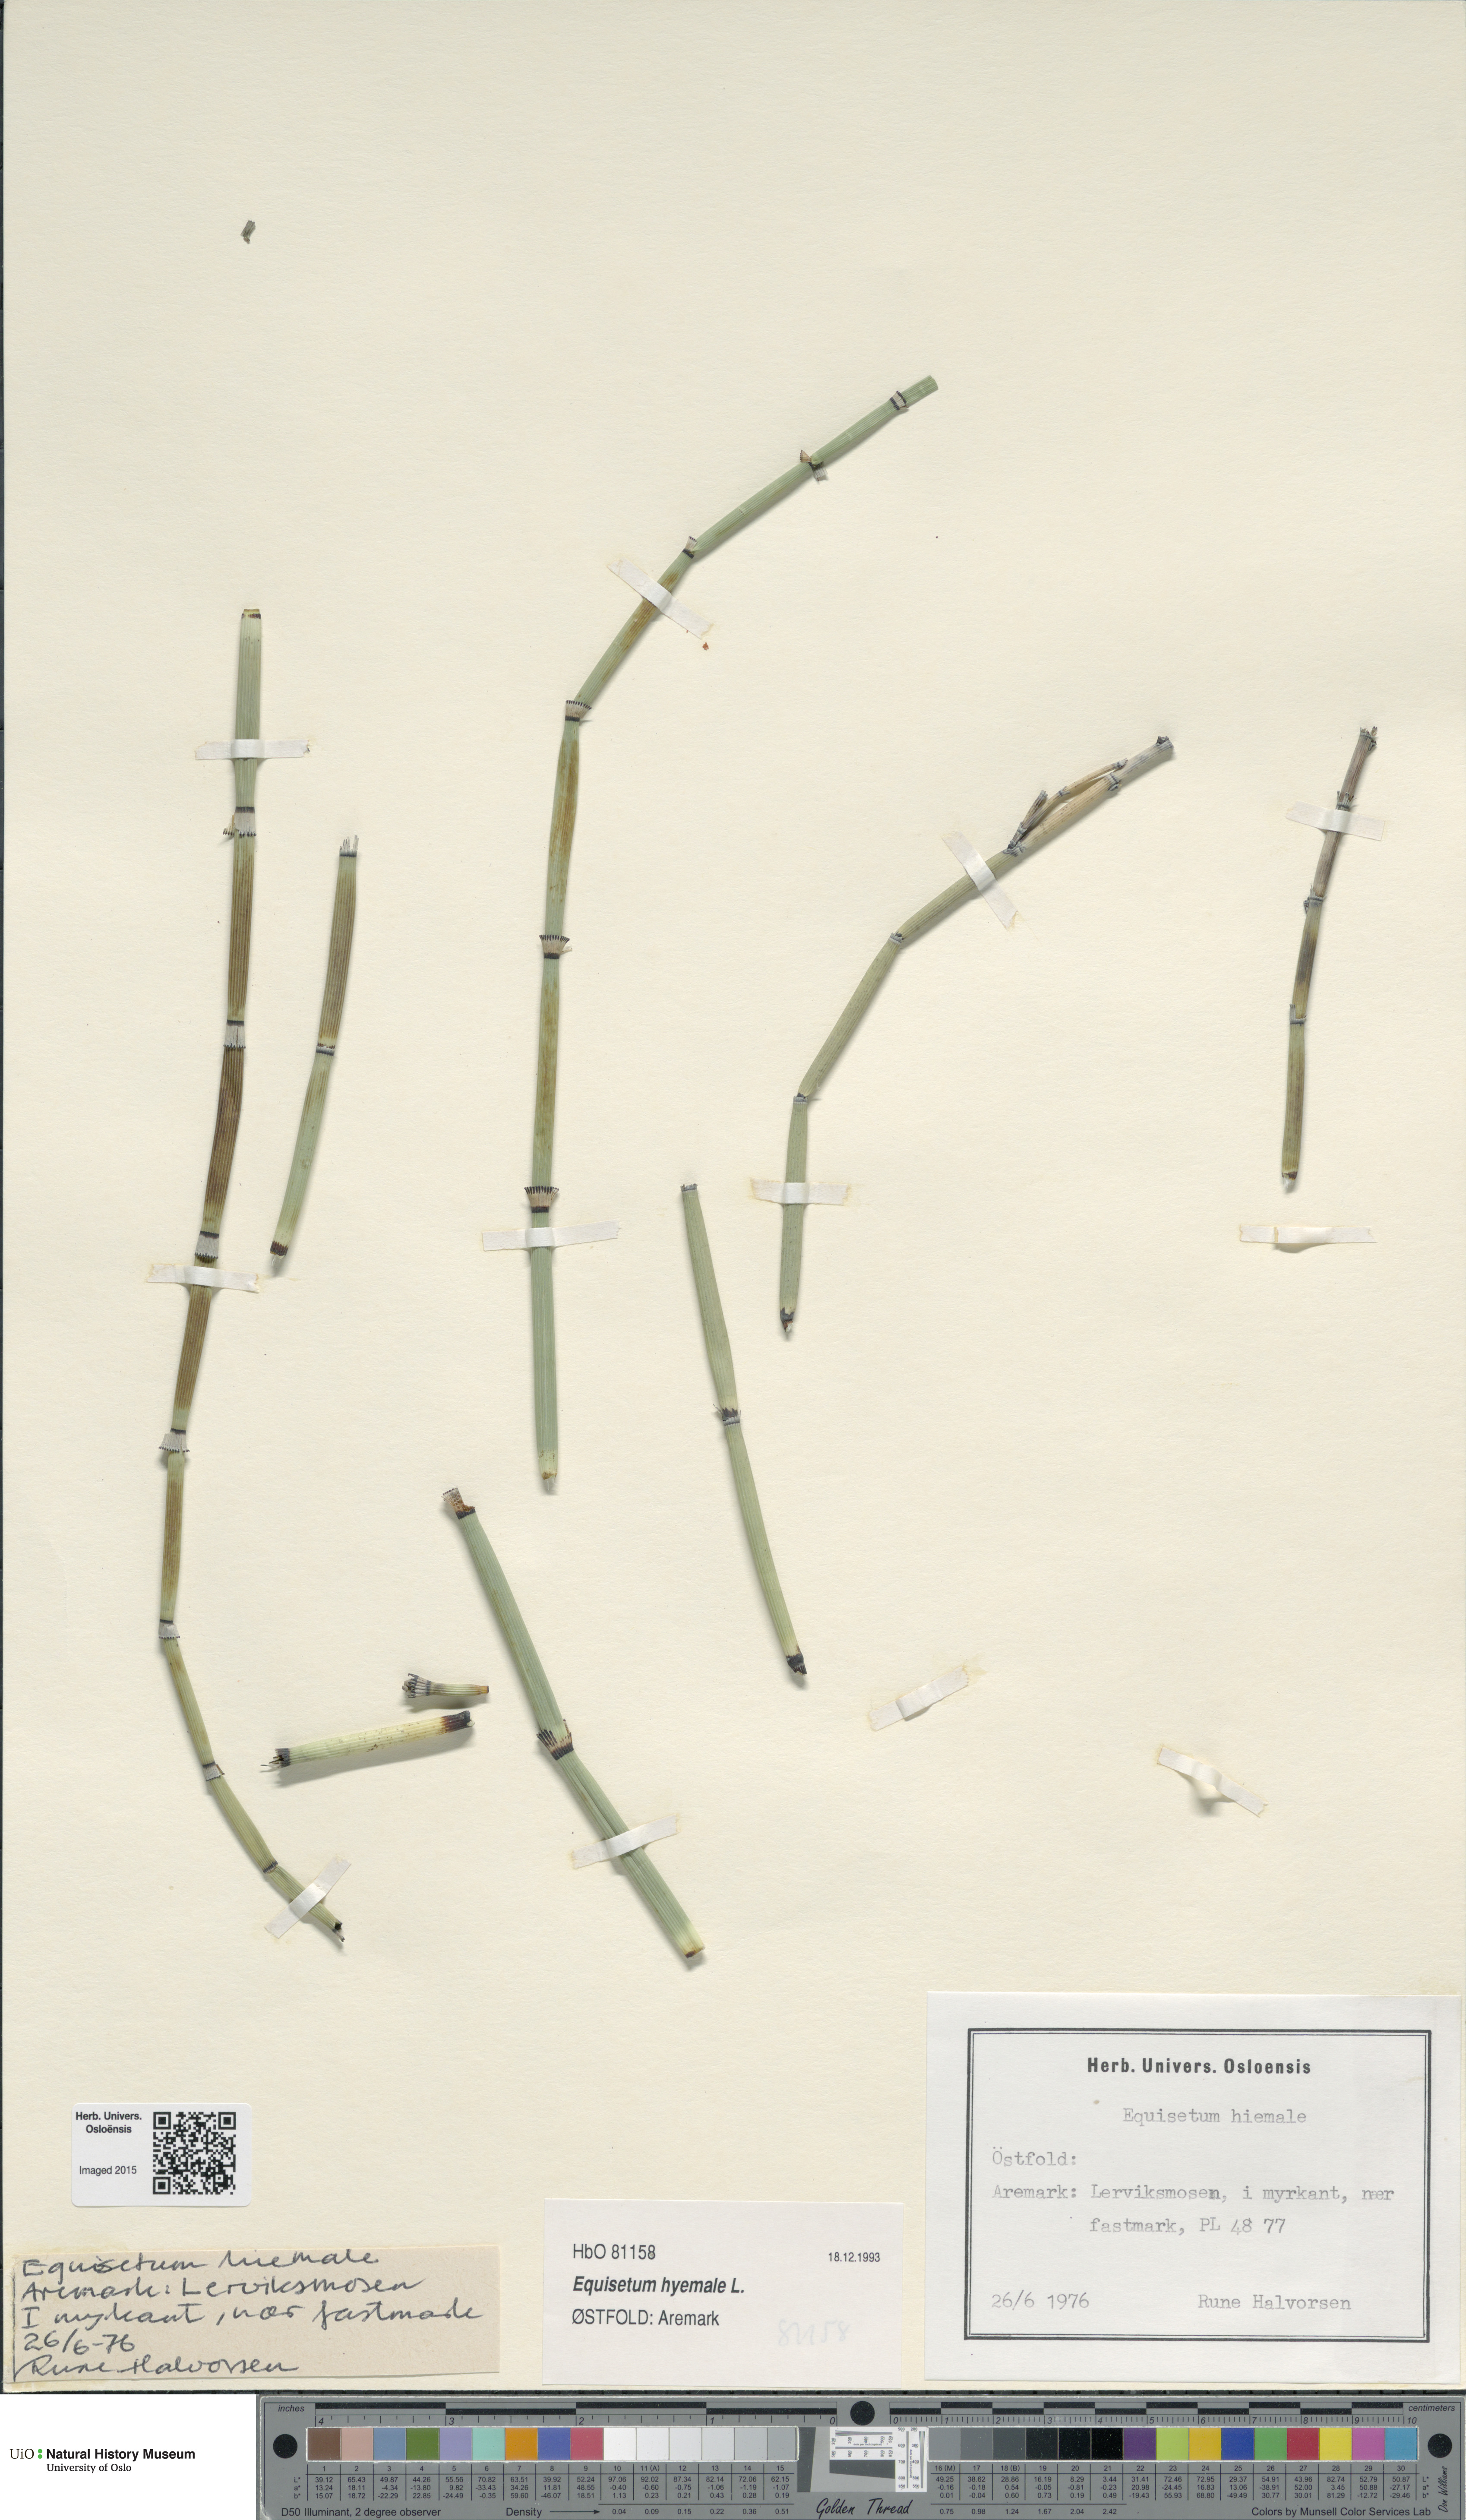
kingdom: Plantae
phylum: Tracheophyta
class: Polypodiopsida
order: Equisetales
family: Equisetaceae
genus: Equisetum
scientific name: Equisetum hyemale
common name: Rough horsetail
